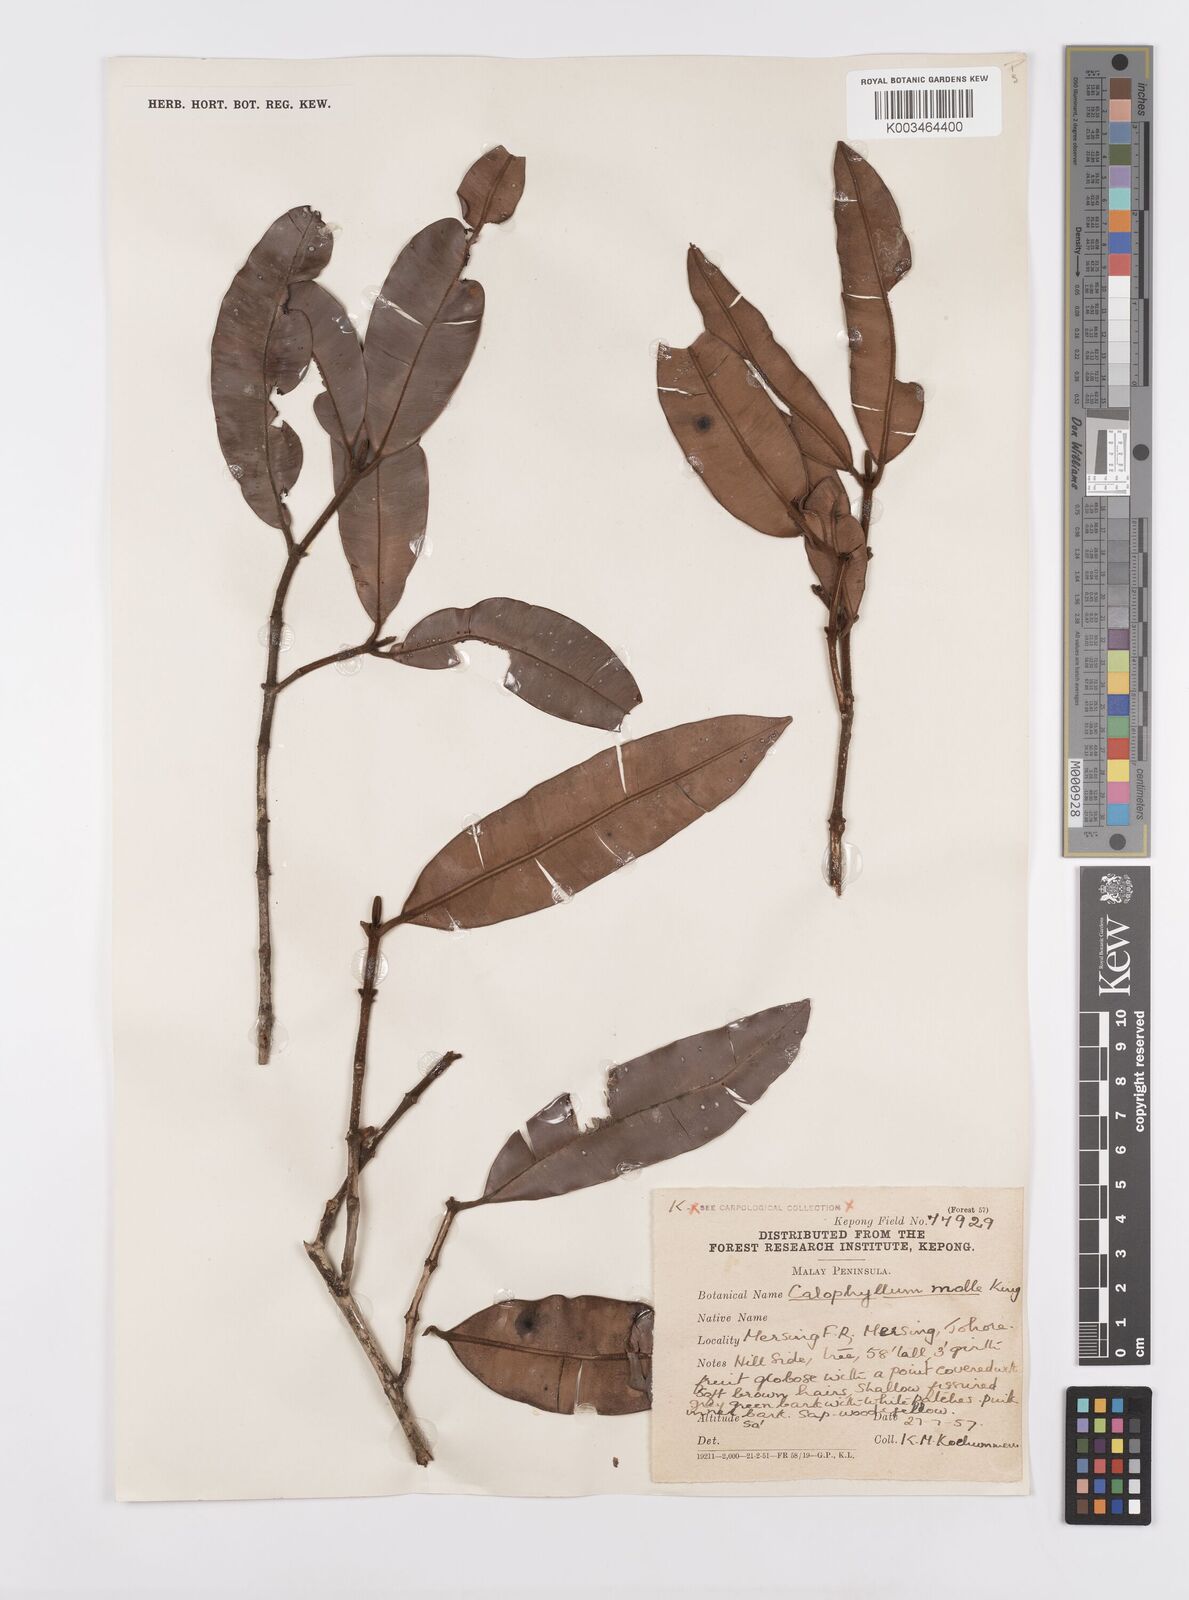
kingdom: Plantae
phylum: Tracheophyta
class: Magnoliopsida
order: Malpighiales
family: Calophyllaceae
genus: Calophyllum
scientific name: Calophyllum molle
